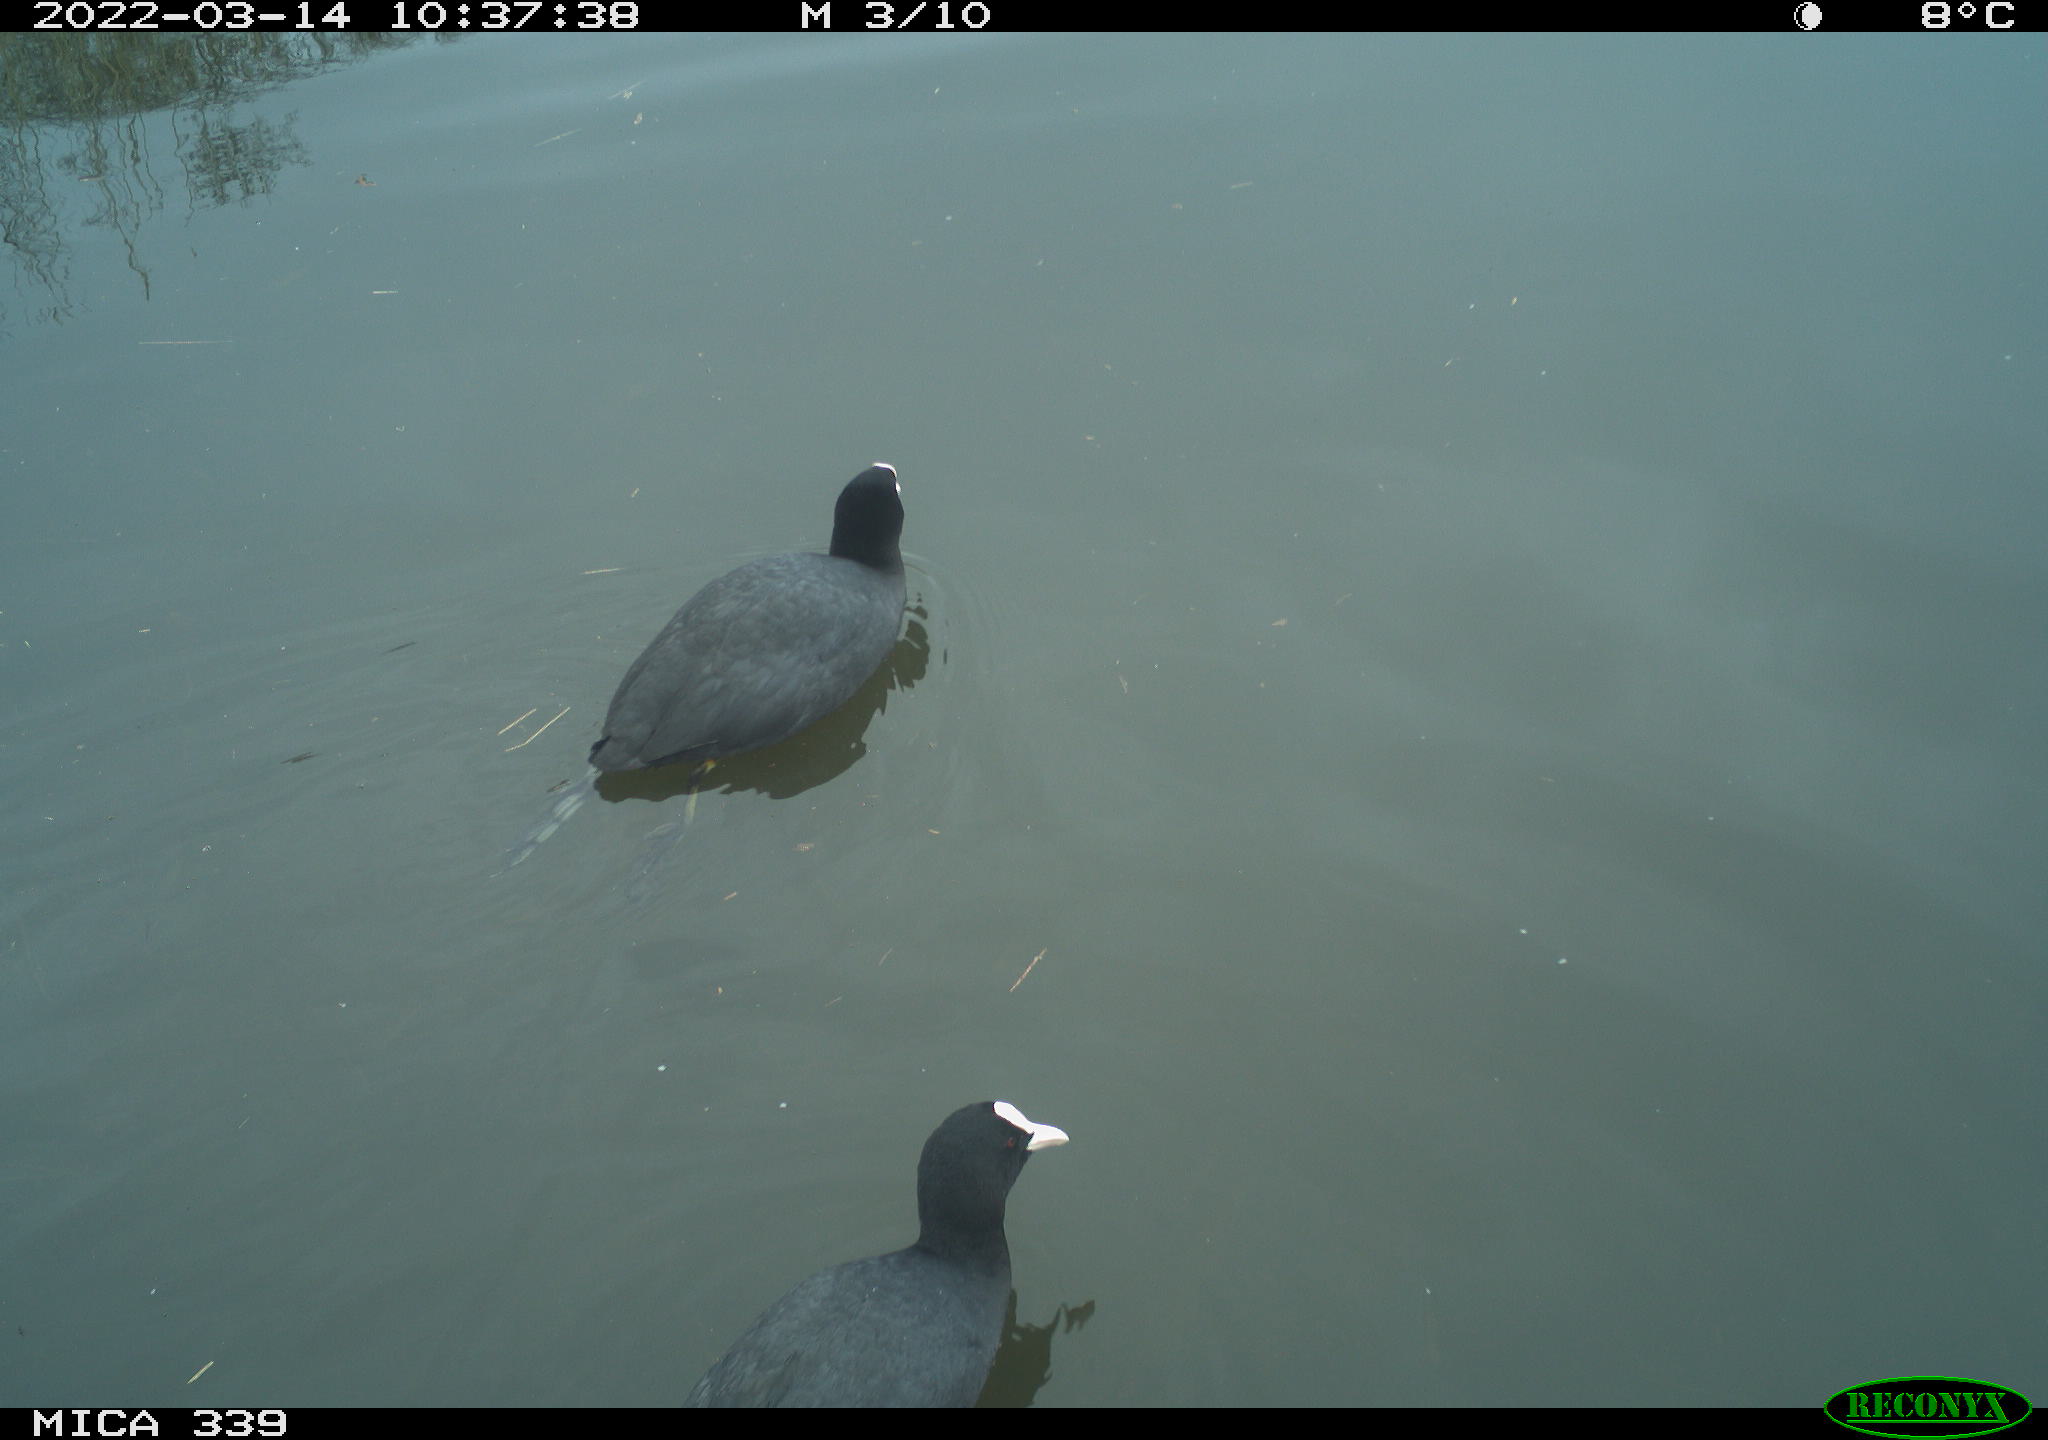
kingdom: Animalia
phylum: Chordata
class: Aves
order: Gruiformes
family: Rallidae
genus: Fulica
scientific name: Fulica atra
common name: Eurasian coot
